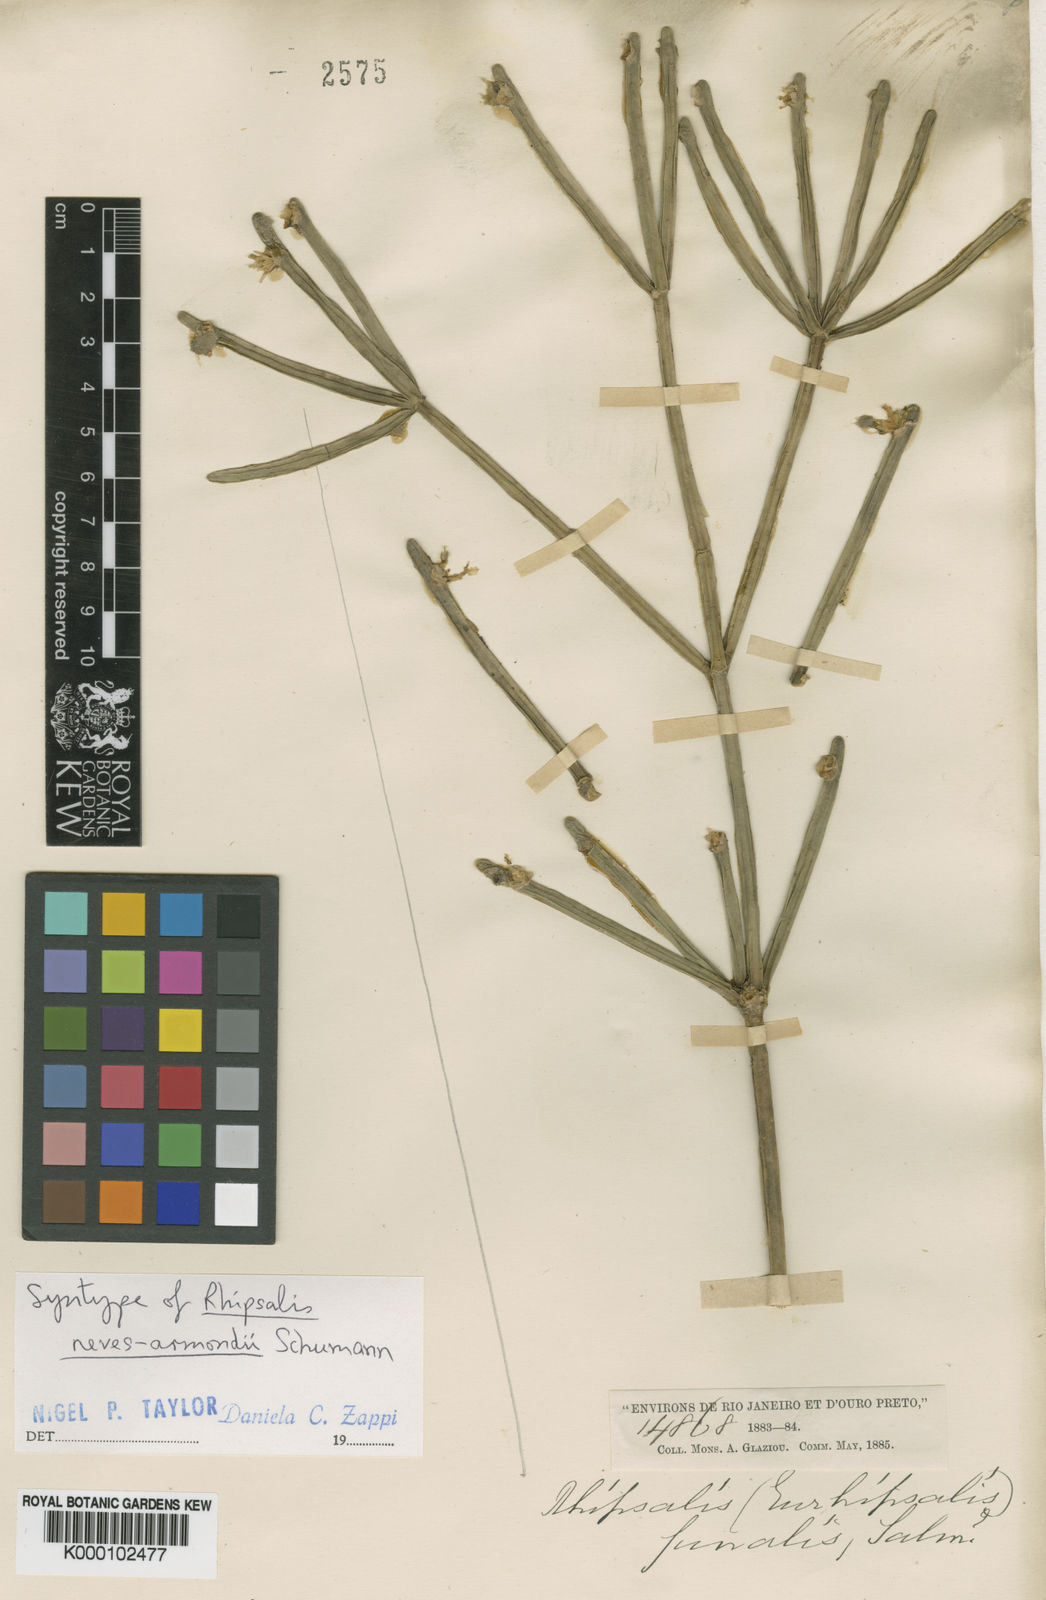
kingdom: Plantae
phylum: Tracheophyta
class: Magnoliopsida
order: Caryophyllales
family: Cactaceae
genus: Rhipsalis
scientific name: Rhipsalis neves-armondii
